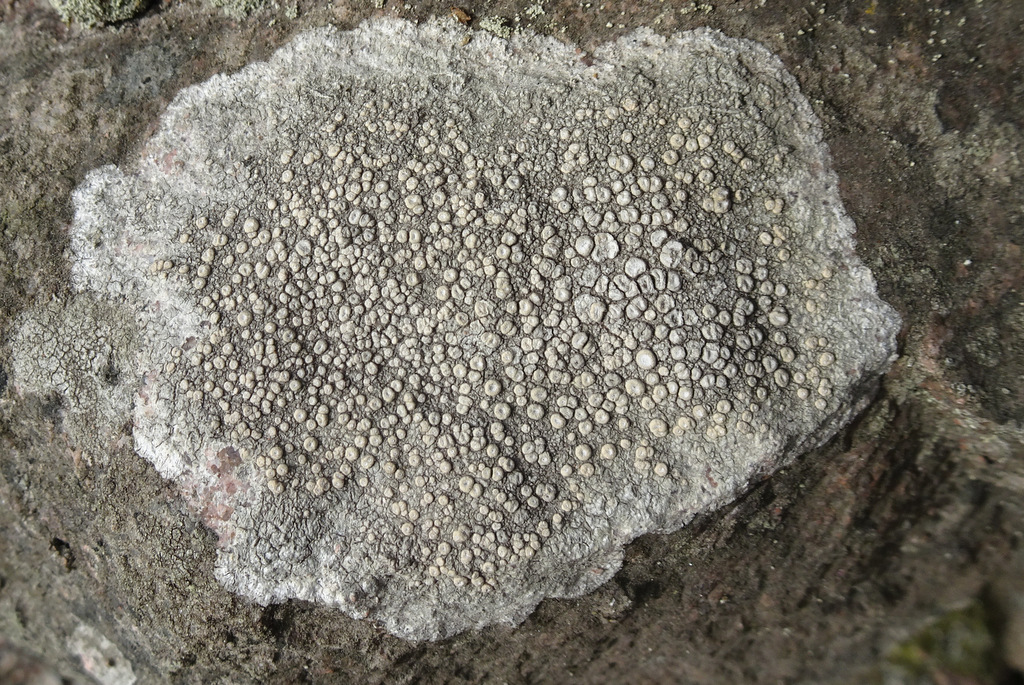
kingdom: Fungi
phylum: Ascomycota
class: Lecanoromycetes
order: Pertusariales
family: Ochrolechiaceae
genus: Ochrolechia
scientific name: Ochrolechia parella
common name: almindelig blegskivelav
